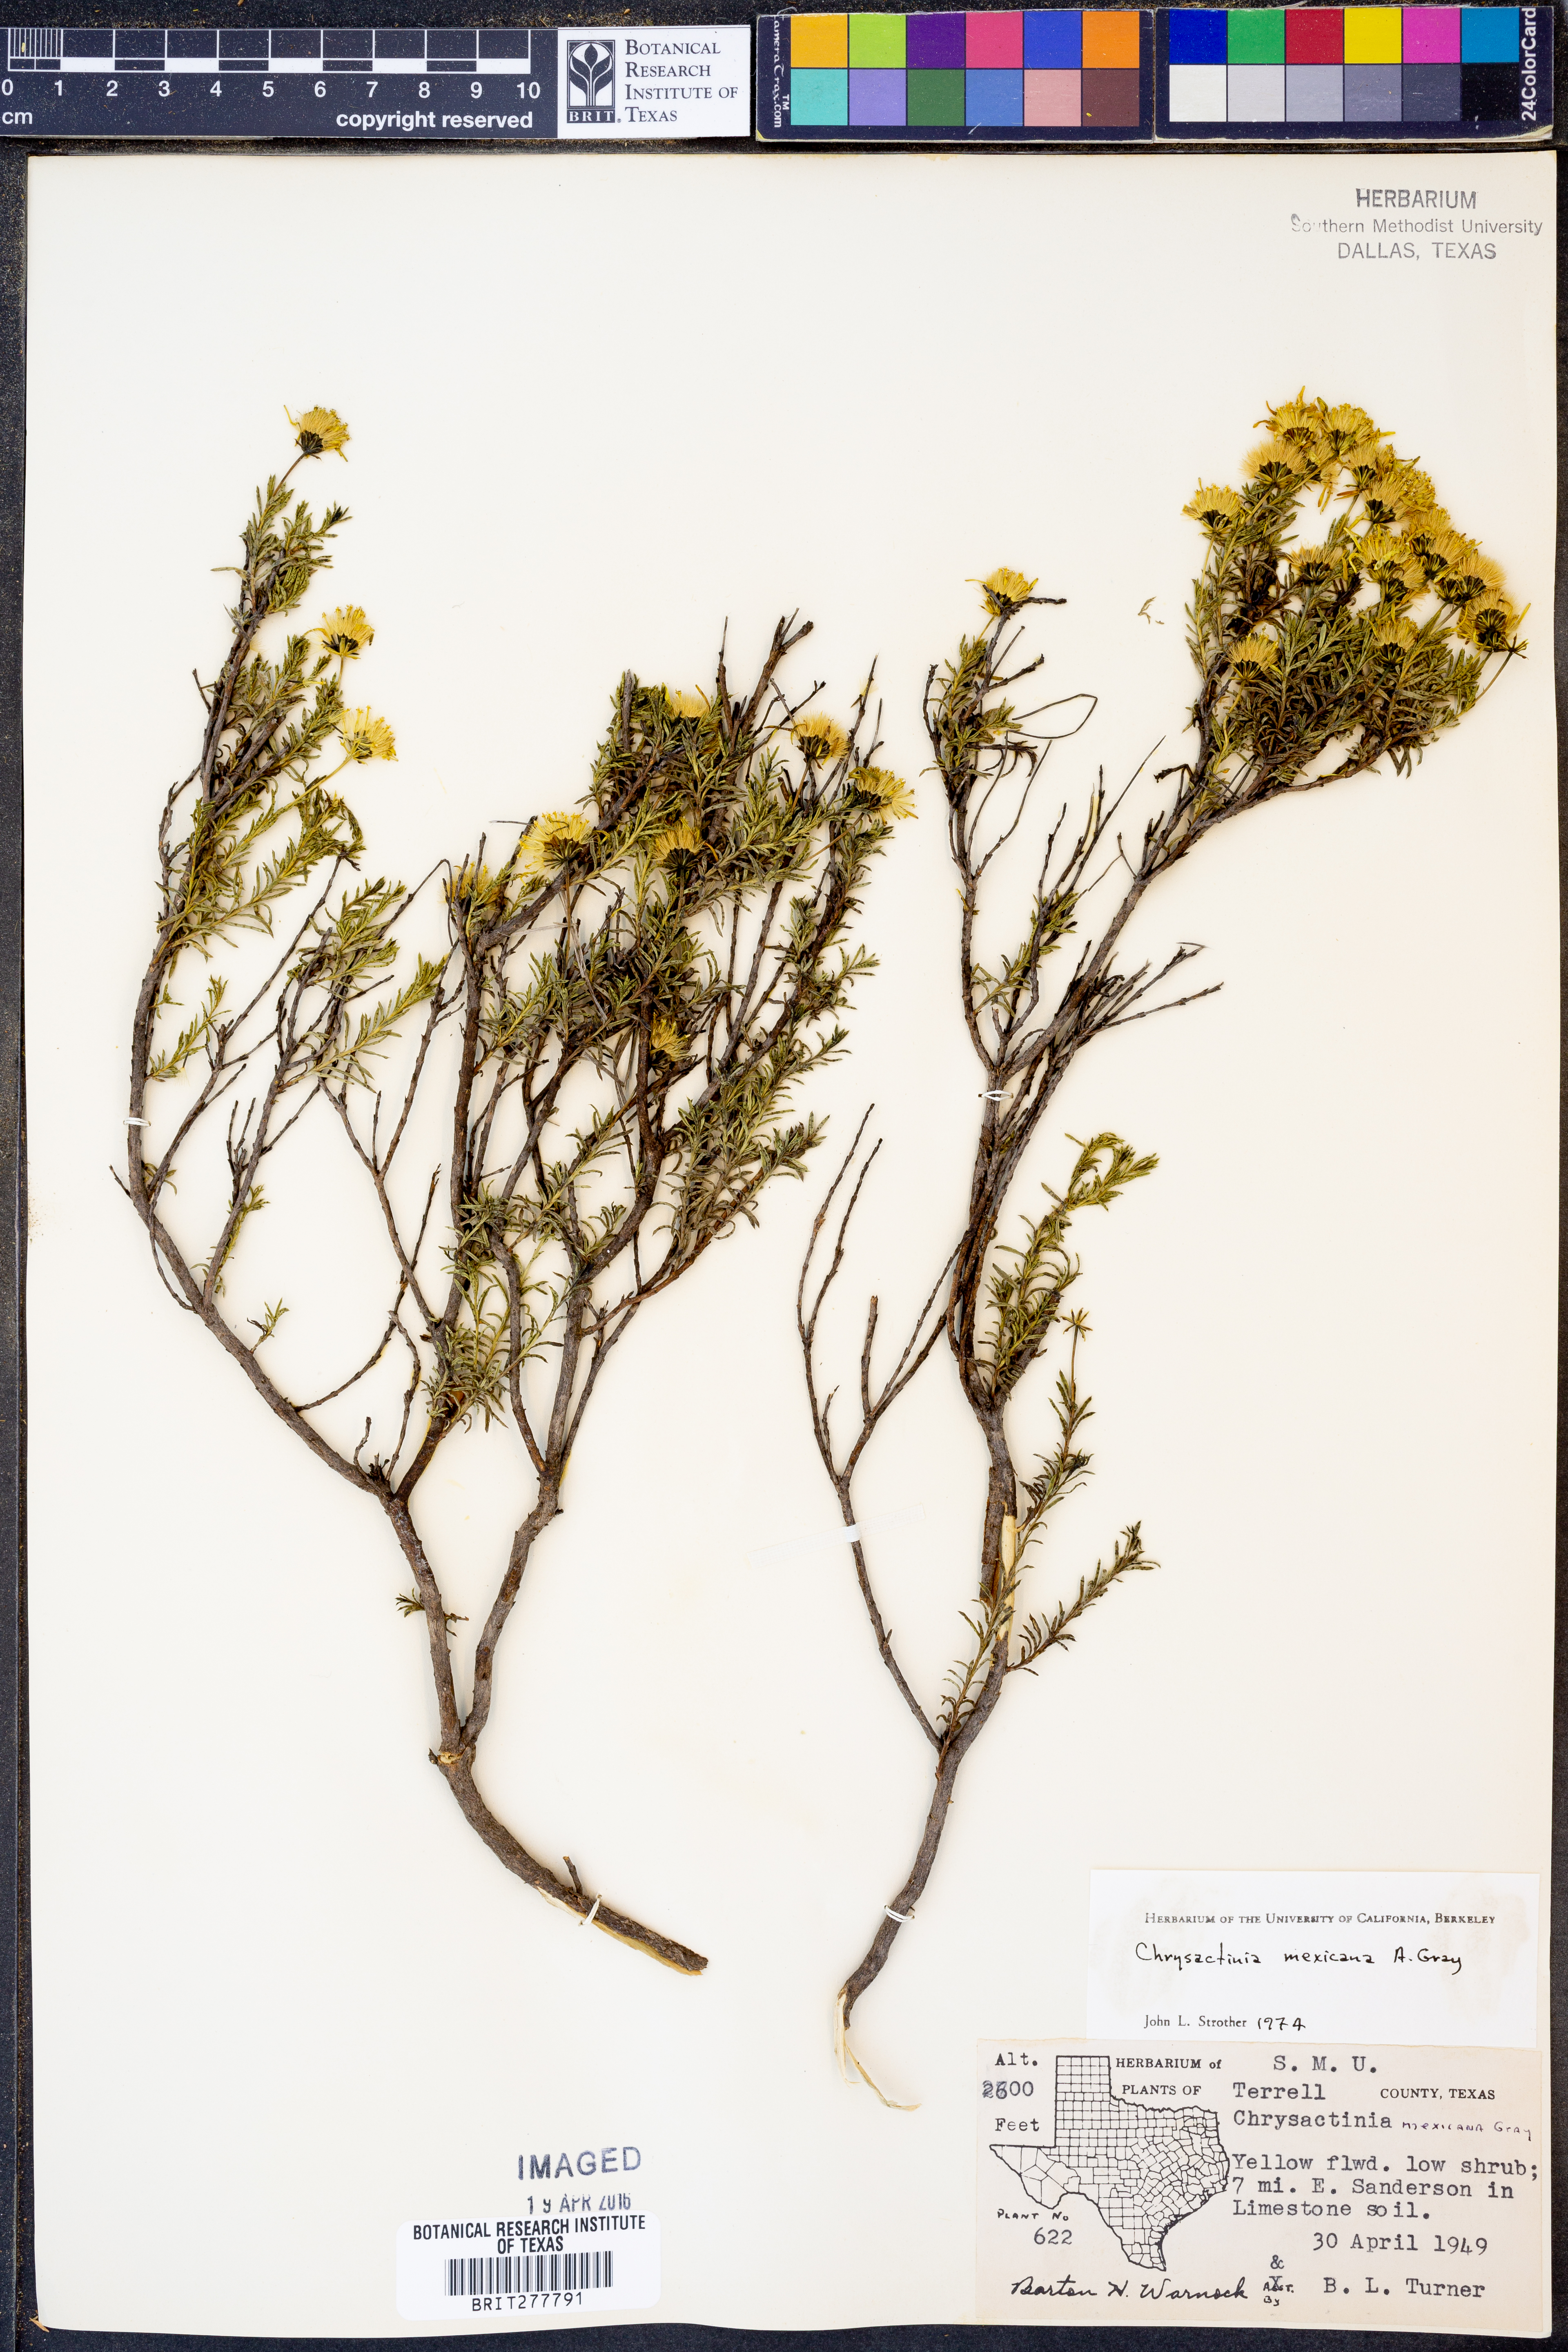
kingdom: Plantae
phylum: Tracheophyta
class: Magnoliopsida
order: Asterales
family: Asteraceae
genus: Chrysactinia
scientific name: Chrysactinia mexicana
